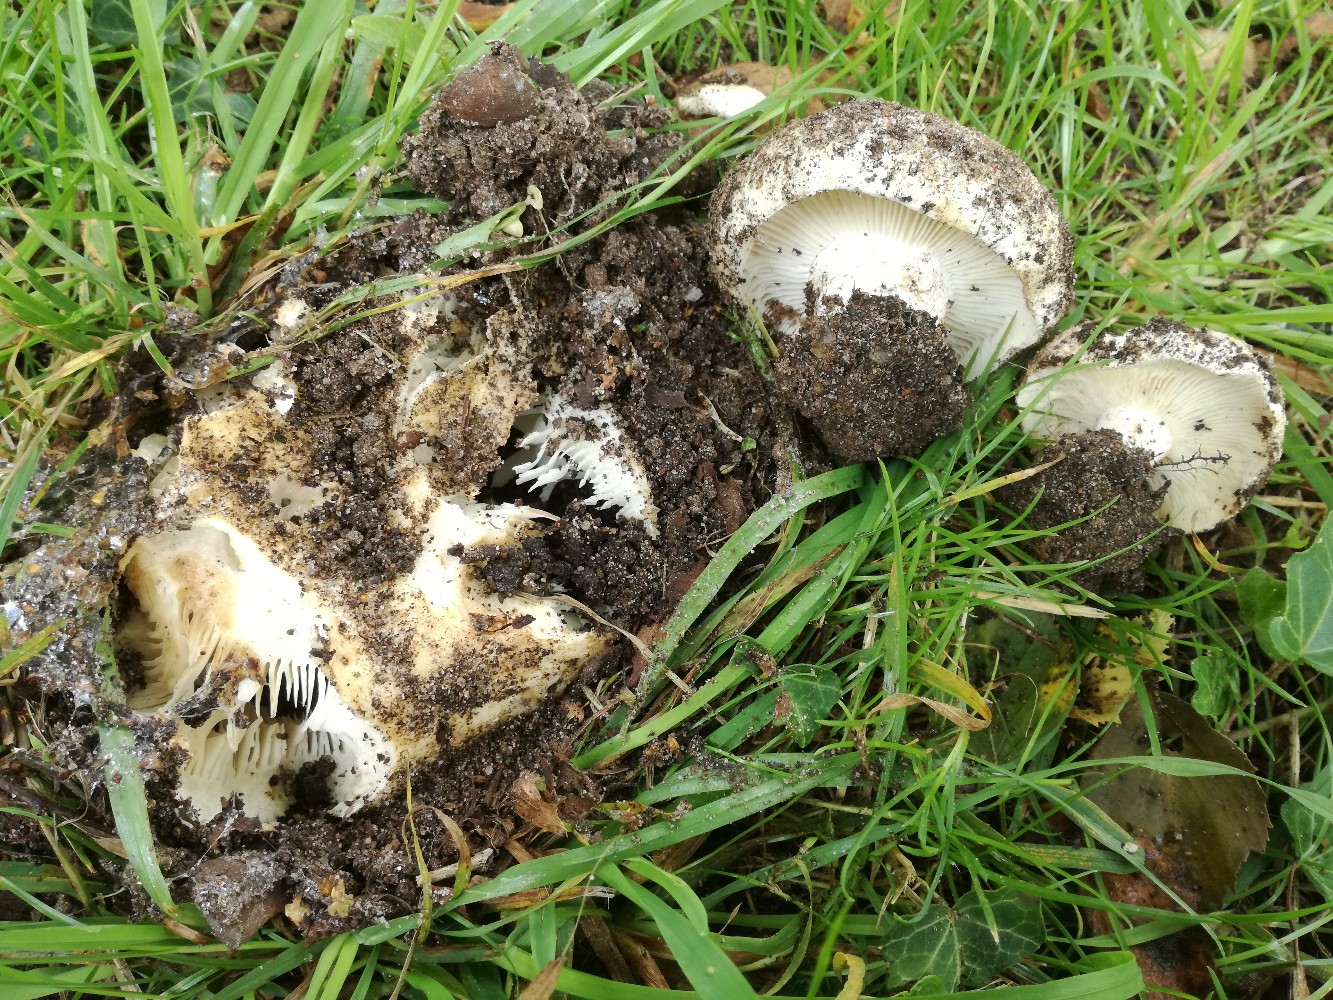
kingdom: Fungi
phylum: Basidiomycota
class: Agaricomycetes
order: Russulales
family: Russulaceae
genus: Russula
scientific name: Russula delica
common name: almindelig tragt-skørhat
